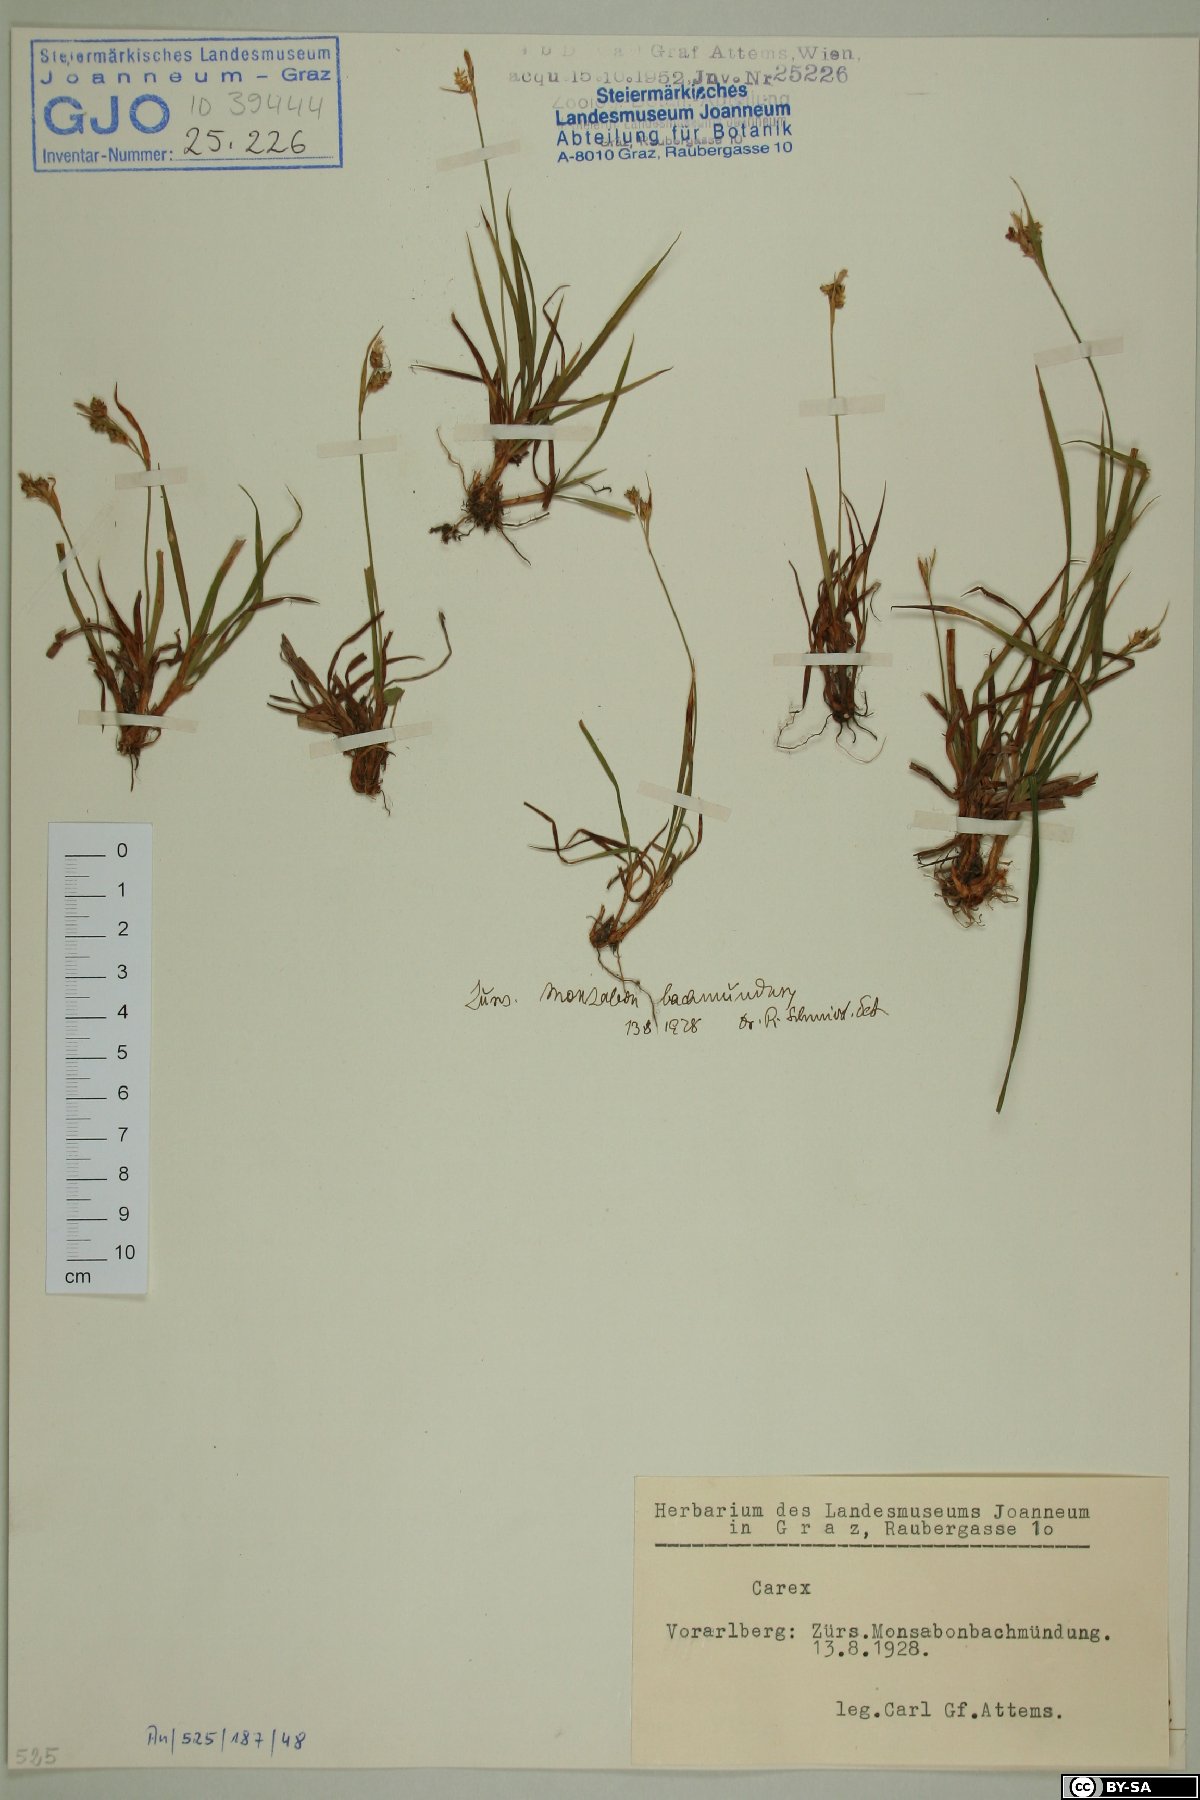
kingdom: Plantae
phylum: Tracheophyta
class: Liliopsida
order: Poales
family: Cyperaceae
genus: Carex
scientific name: Carex pallescens
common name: Pale sedge
